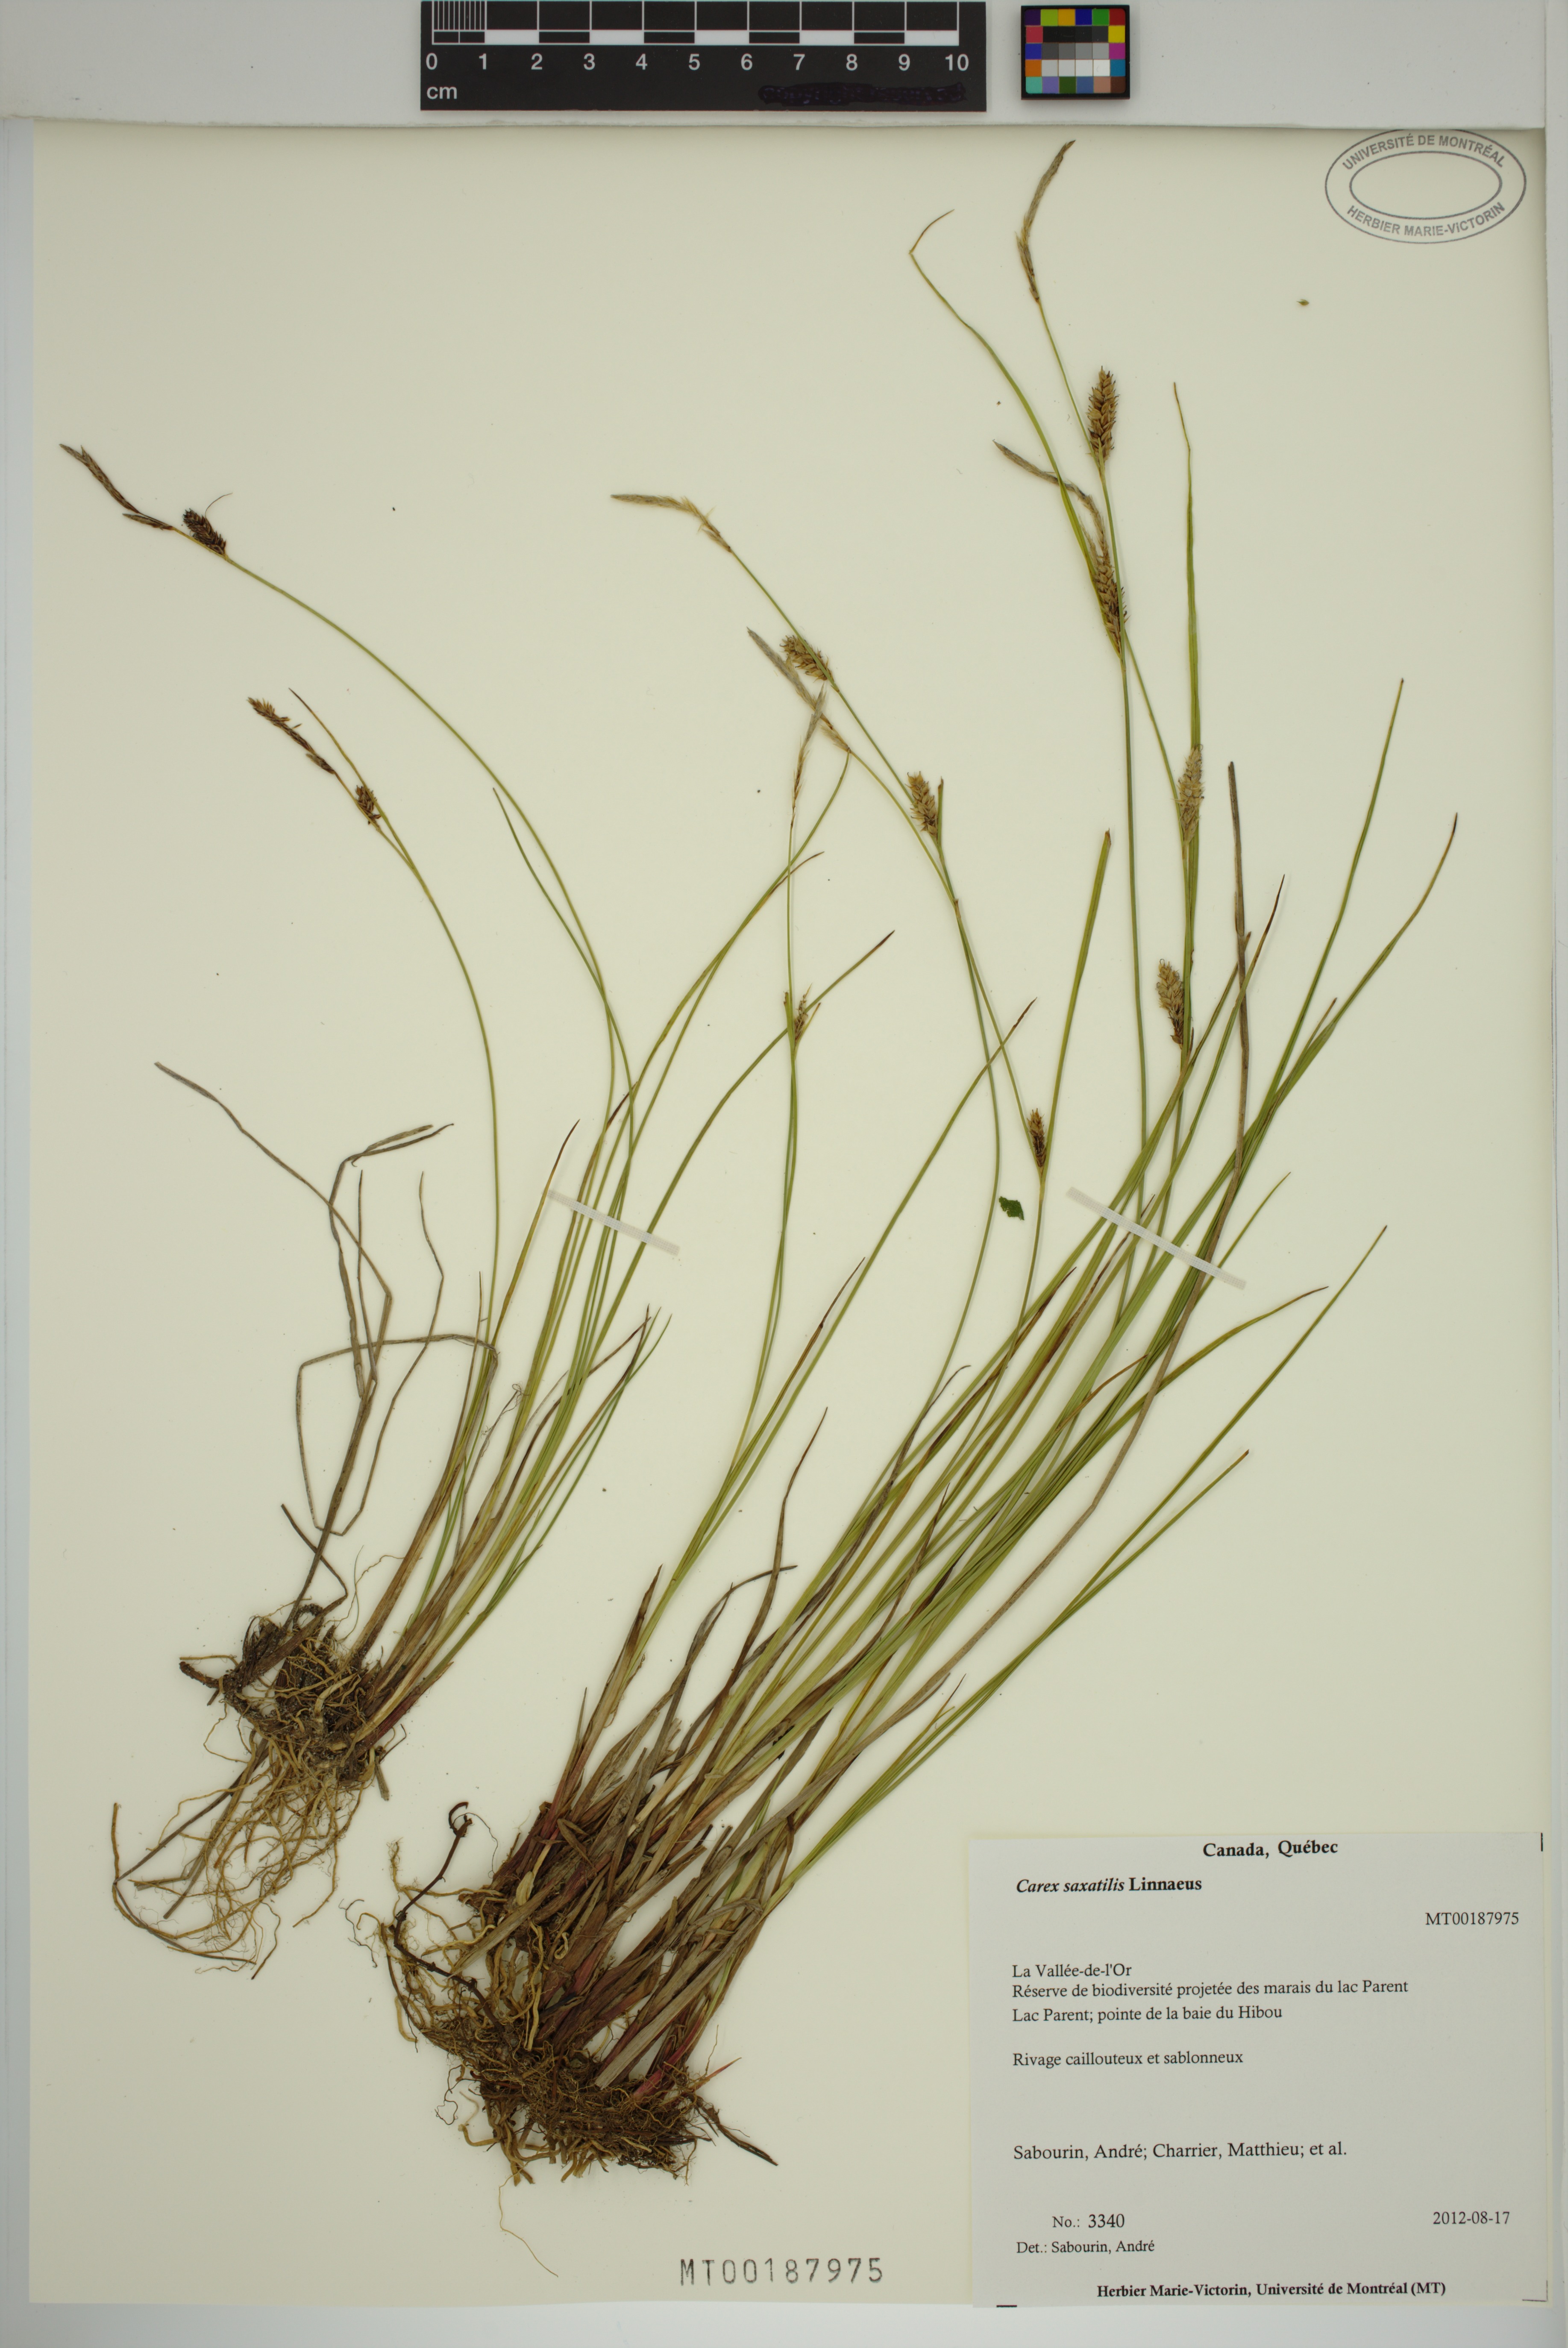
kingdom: Plantae
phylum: Tracheophyta
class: Liliopsida
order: Poales
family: Cyperaceae
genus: Carex
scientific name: Carex saxatilis
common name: Russet sedge
